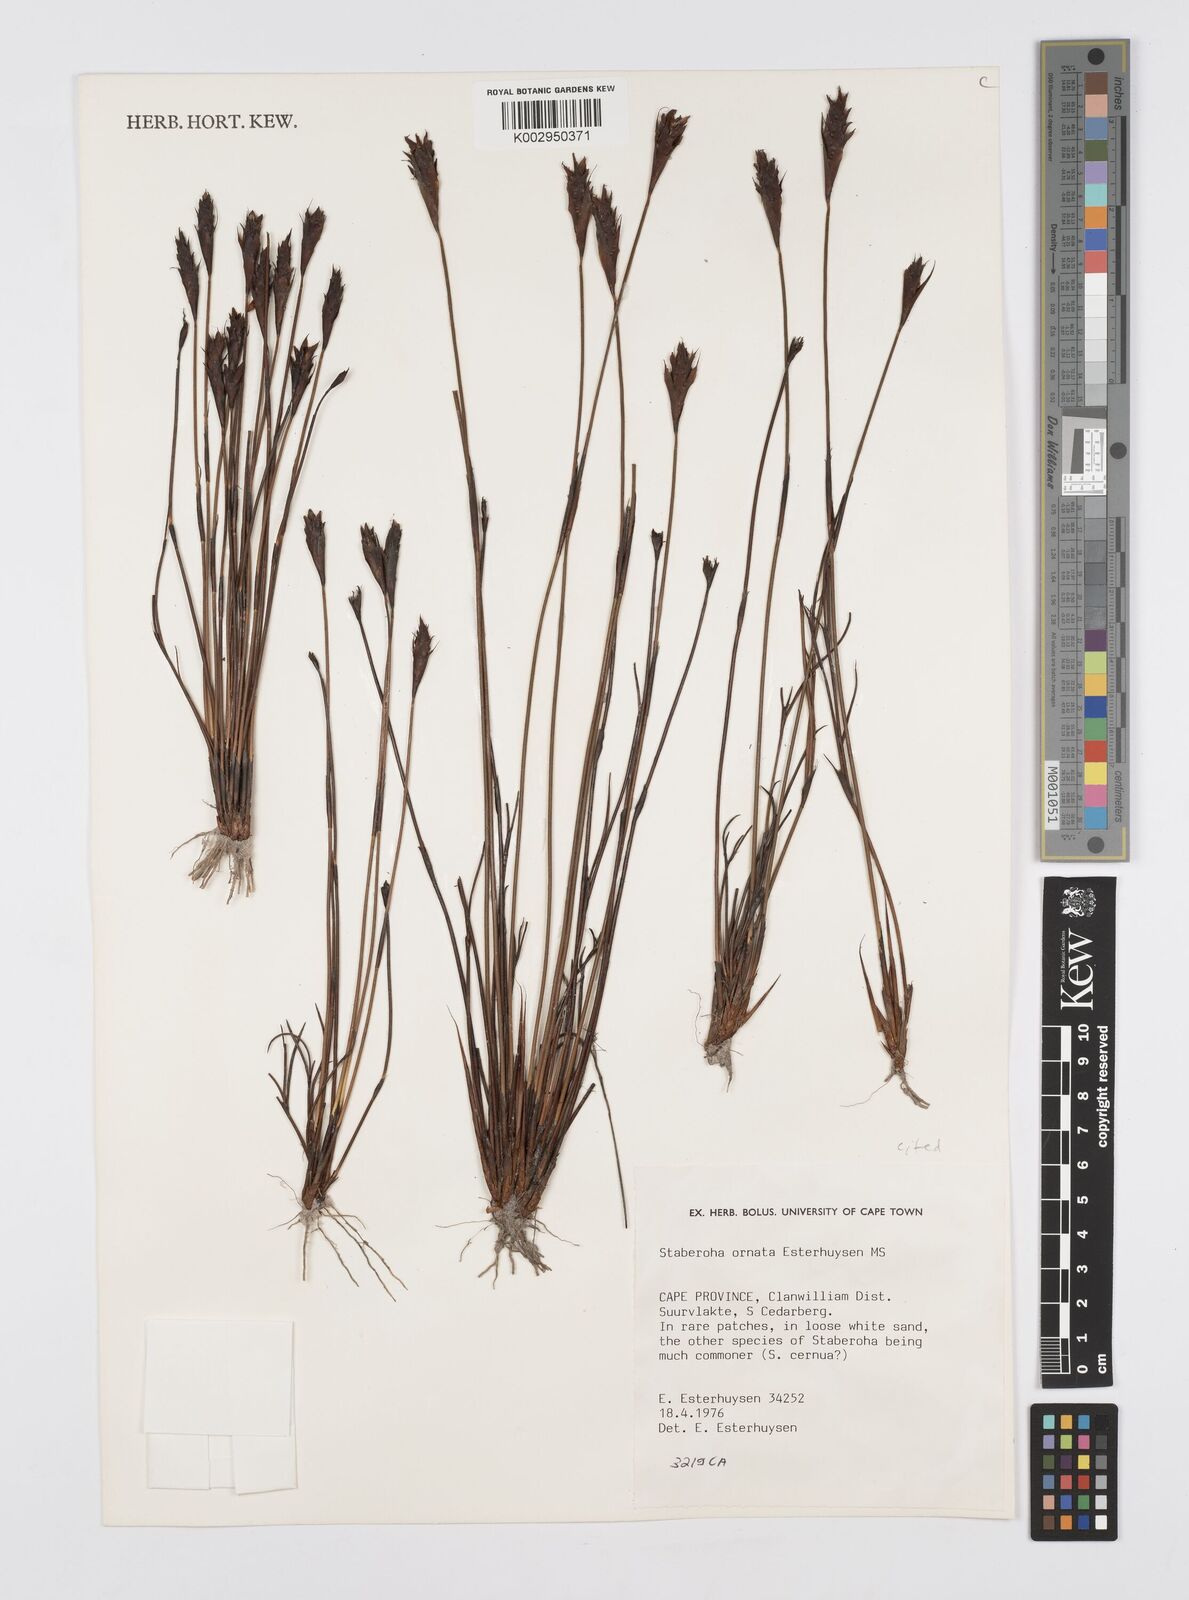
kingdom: Plantae
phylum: Tracheophyta
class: Liliopsida
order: Poales
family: Restionaceae
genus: Staberoha
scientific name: Staberoha ornata
